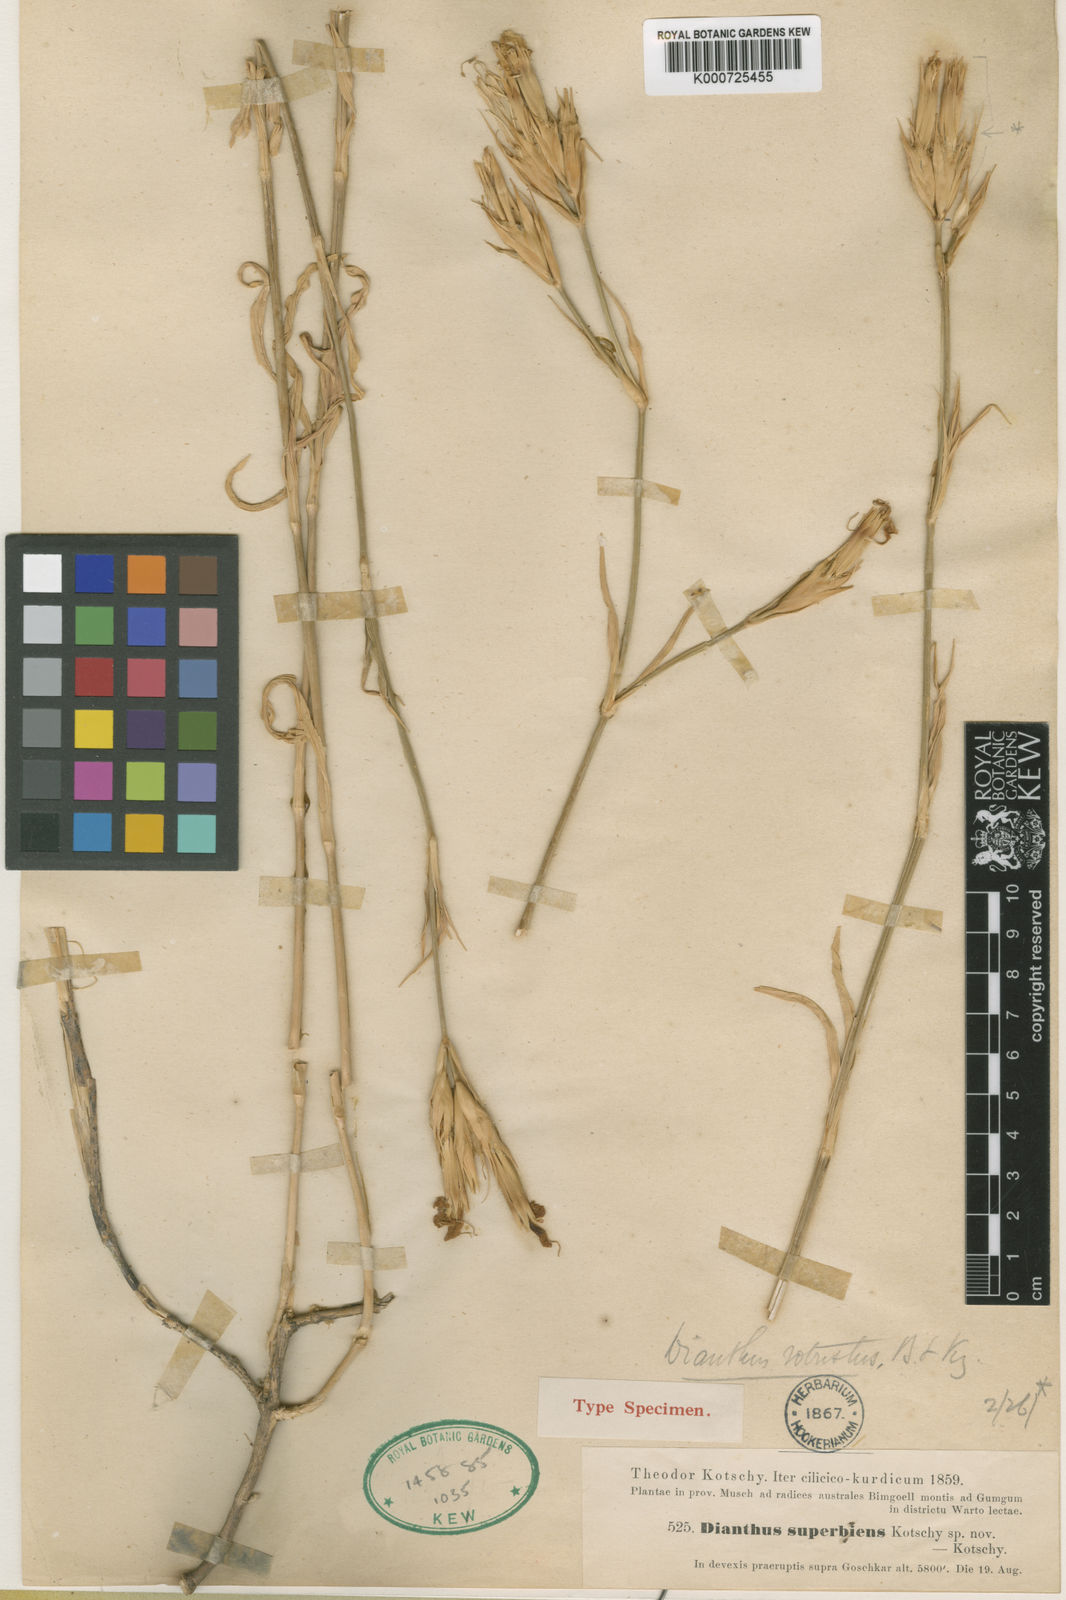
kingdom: Plantae
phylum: Tracheophyta
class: Magnoliopsida
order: Caryophyllales
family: Caryophyllaceae
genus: Dianthus
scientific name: Dianthus robustus
